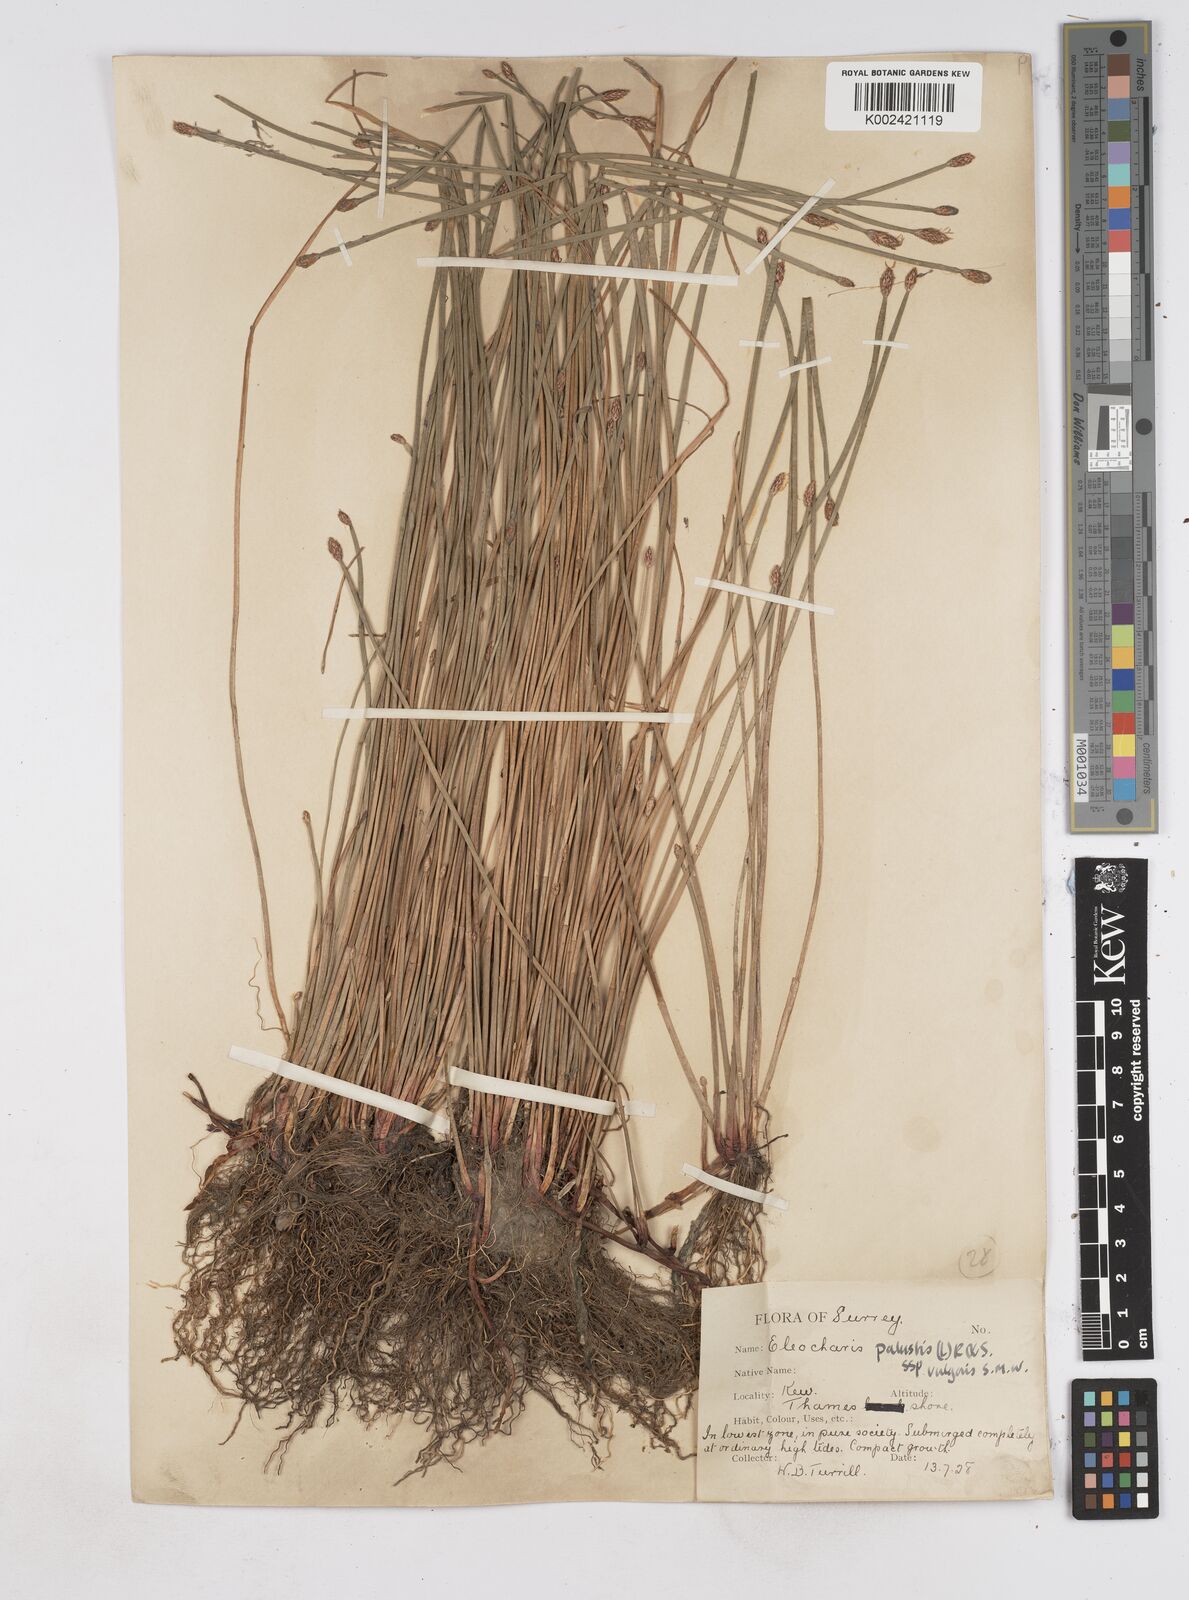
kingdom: Plantae
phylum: Tracheophyta
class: Liliopsida
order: Poales
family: Cyperaceae
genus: Eleocharis
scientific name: Eleocharis palustris
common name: Common spike-rush
